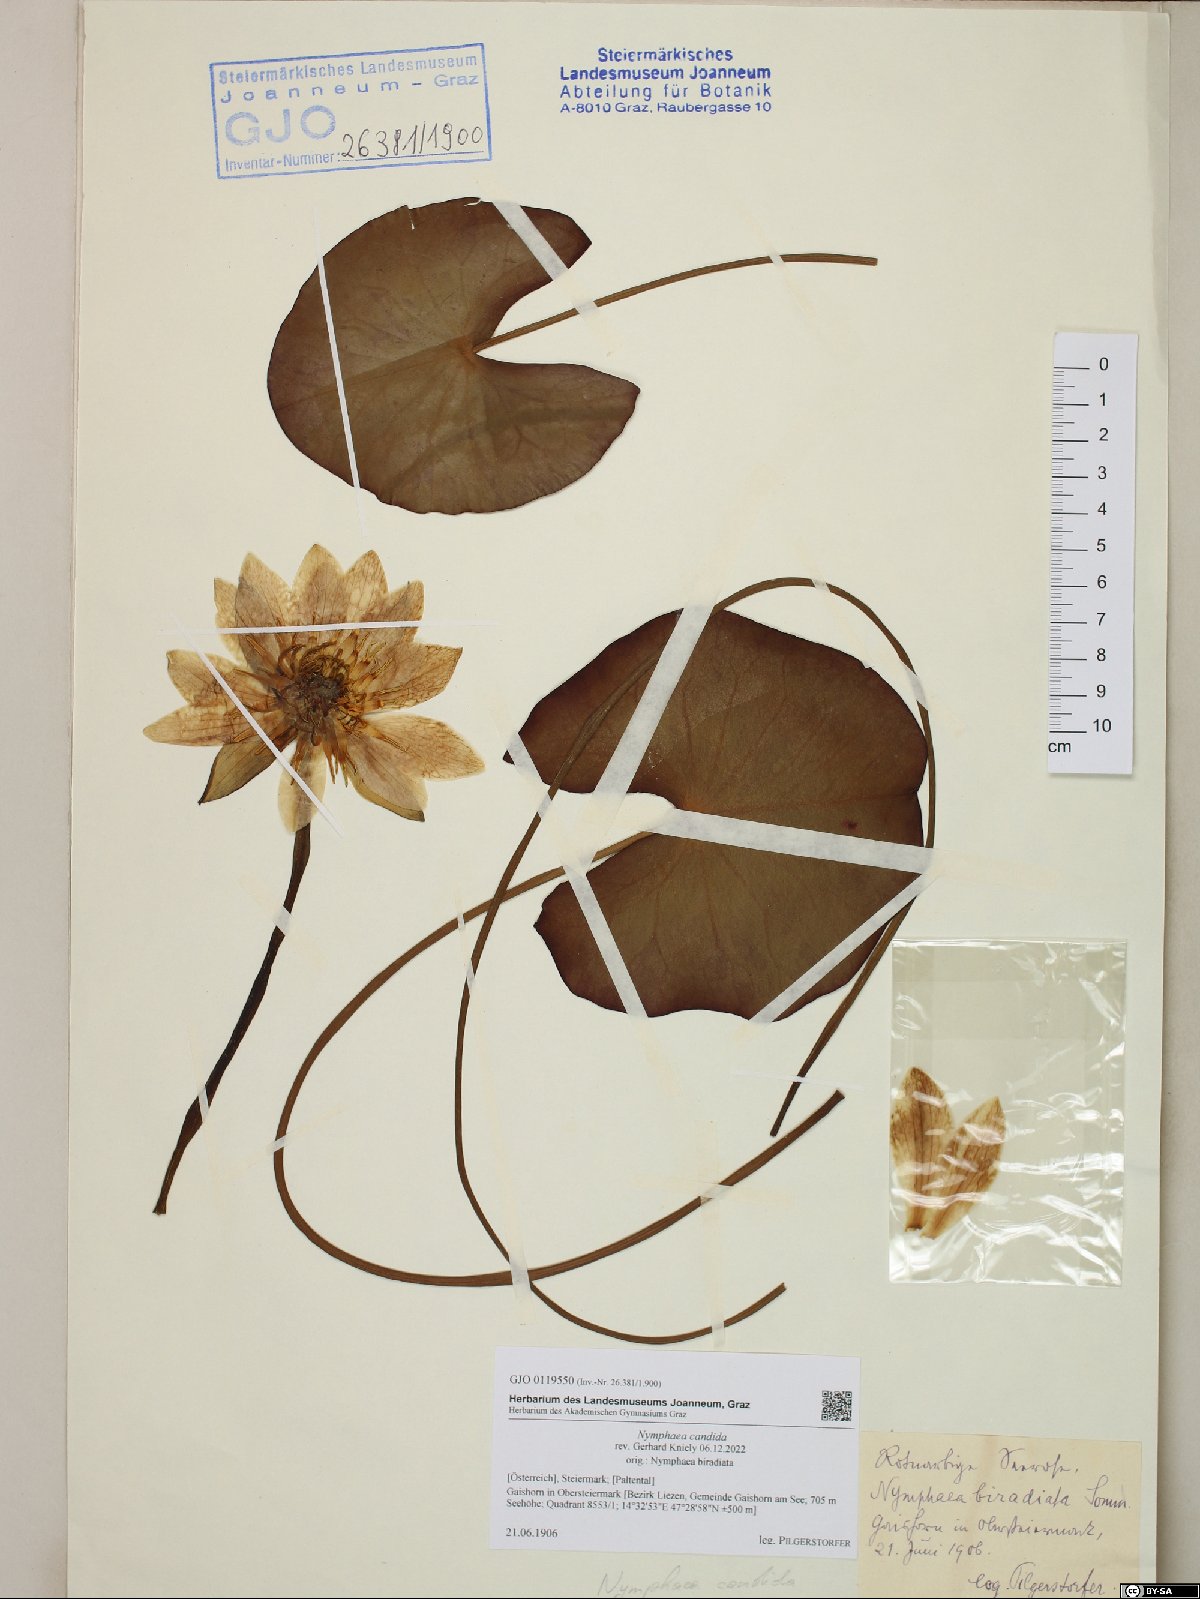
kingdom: Plantae
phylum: Tracheophyta
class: Magnoliopsida
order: Nymphaeales
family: Nymphaeaceae
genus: Nymphaea
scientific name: Nymphaea candida
